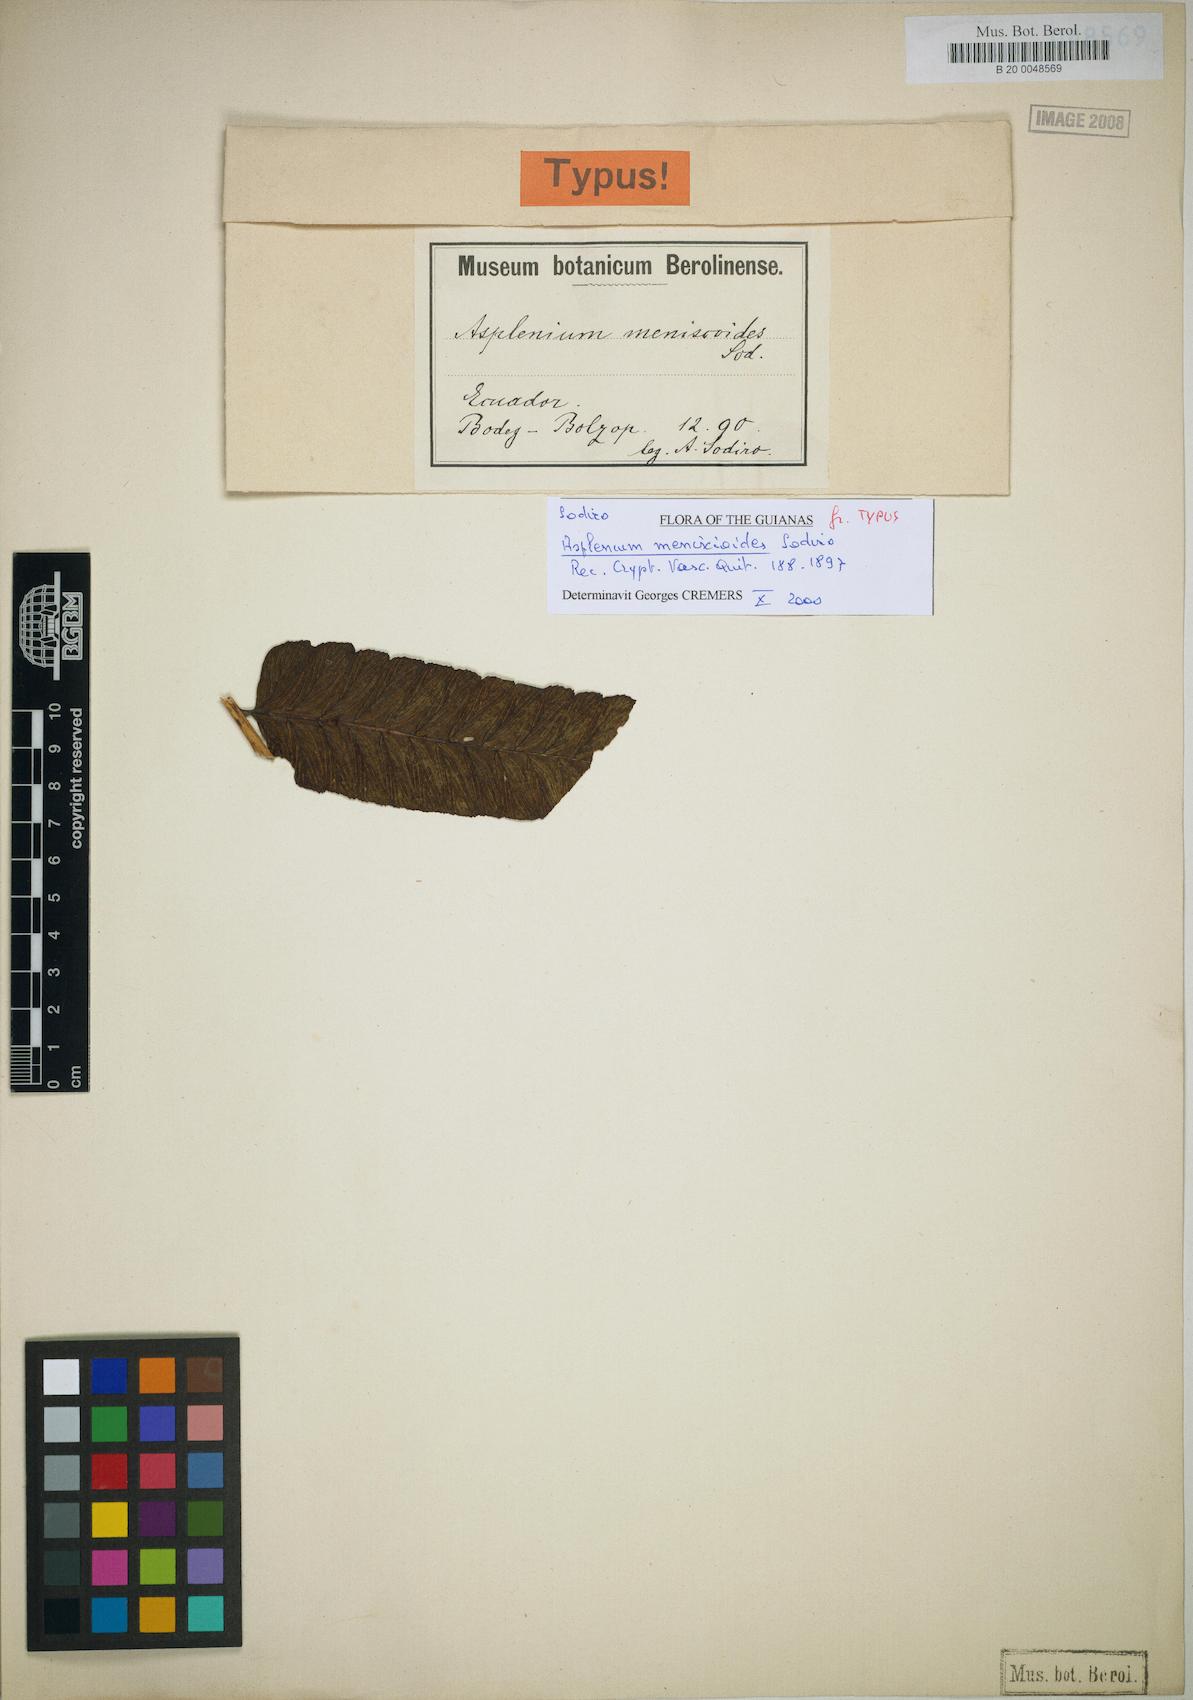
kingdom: Plantae
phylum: Tracheophyta
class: Polypodiopsida
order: Polypodiales
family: Athyriaceae
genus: Diplazium
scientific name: Diplazium moccennianum
